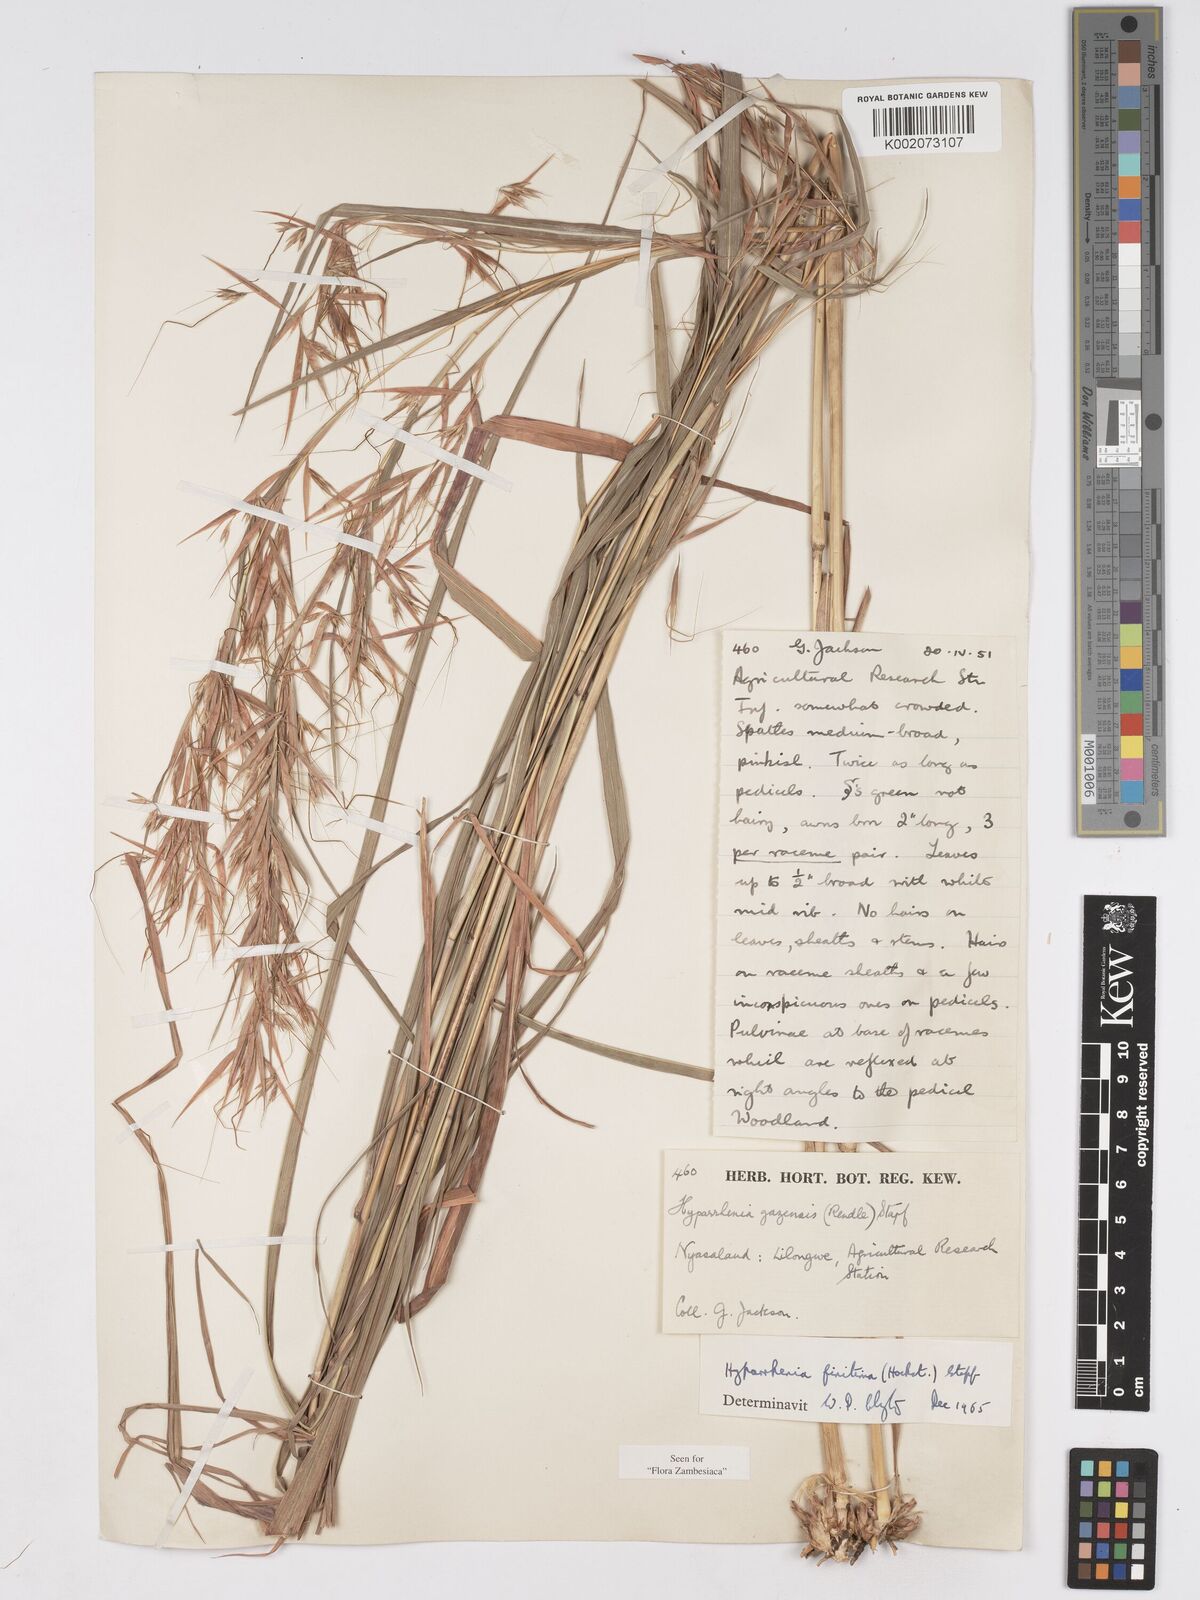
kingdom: Plantae
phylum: Tracheophyta
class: Liliopsida
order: Poales
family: Poaceae
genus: Hyparrhenia
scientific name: Hyparrhenia finitima
